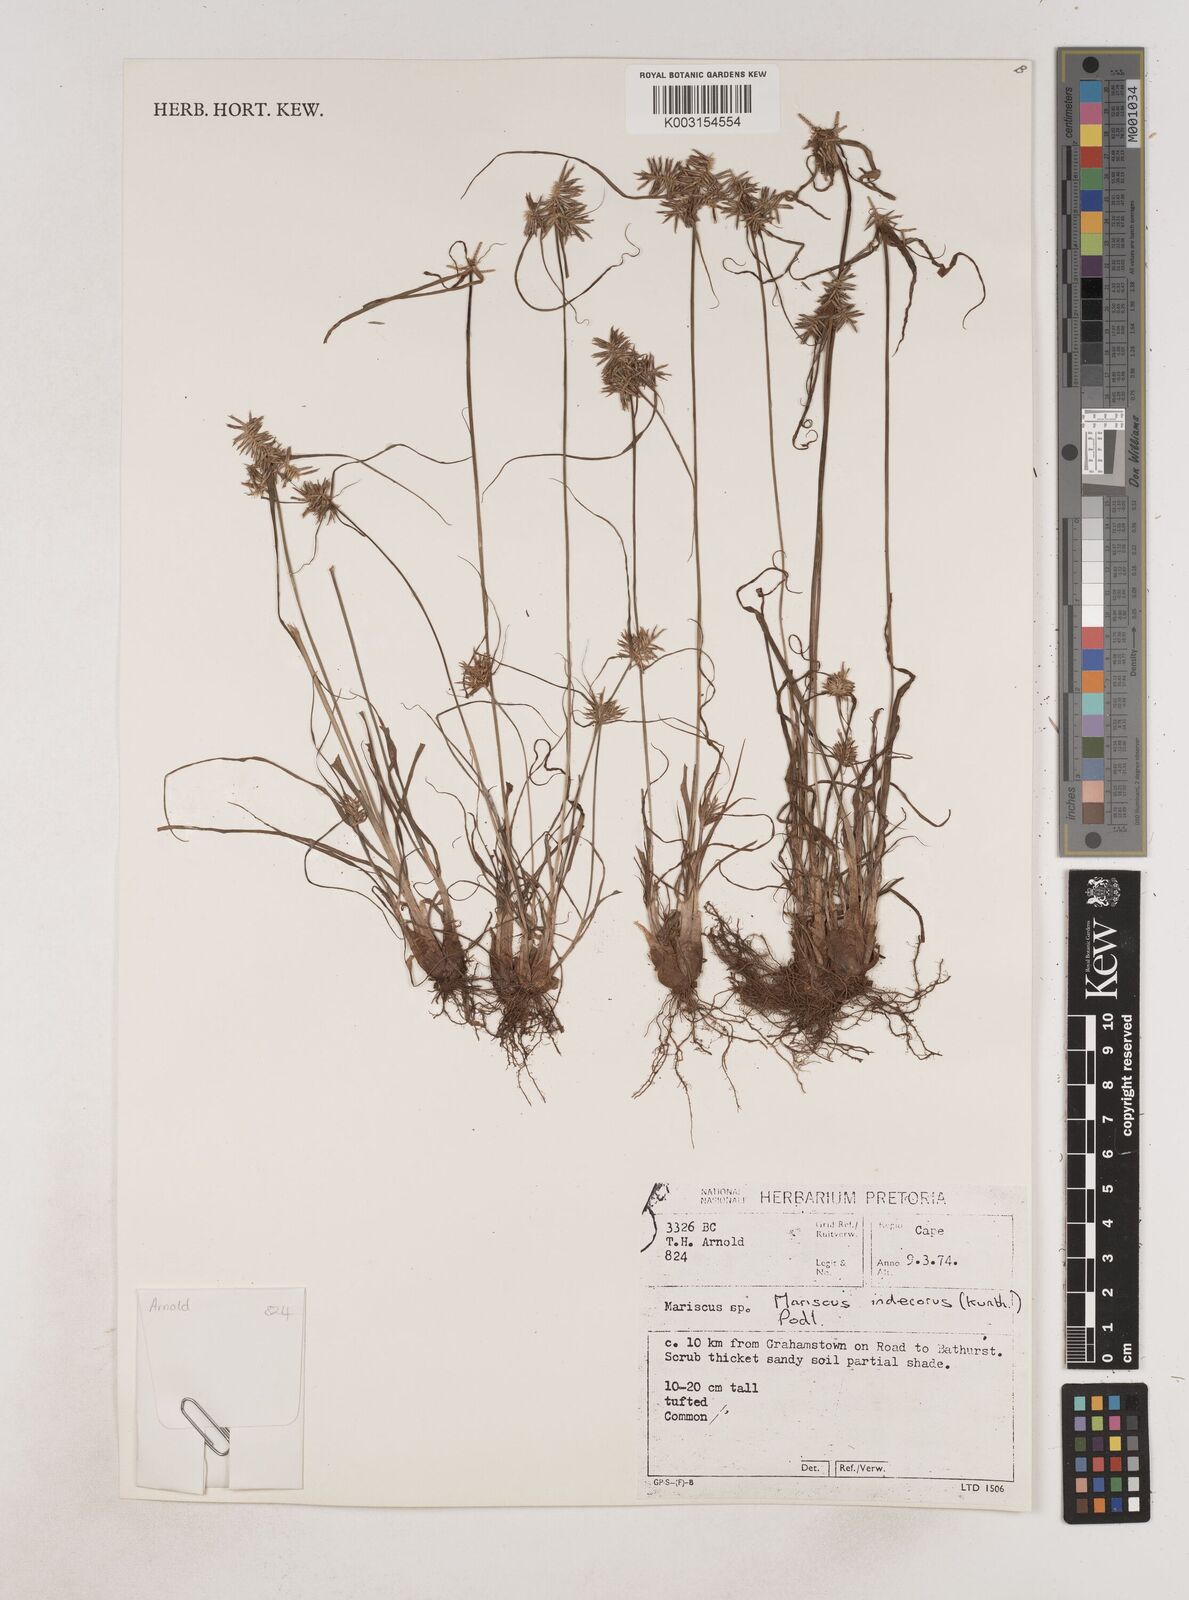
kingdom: Plantae
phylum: Tracheophyta
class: Liliopsida
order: Poales
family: Cyperaceae
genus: Cyperus
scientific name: Cyperus indecorus
